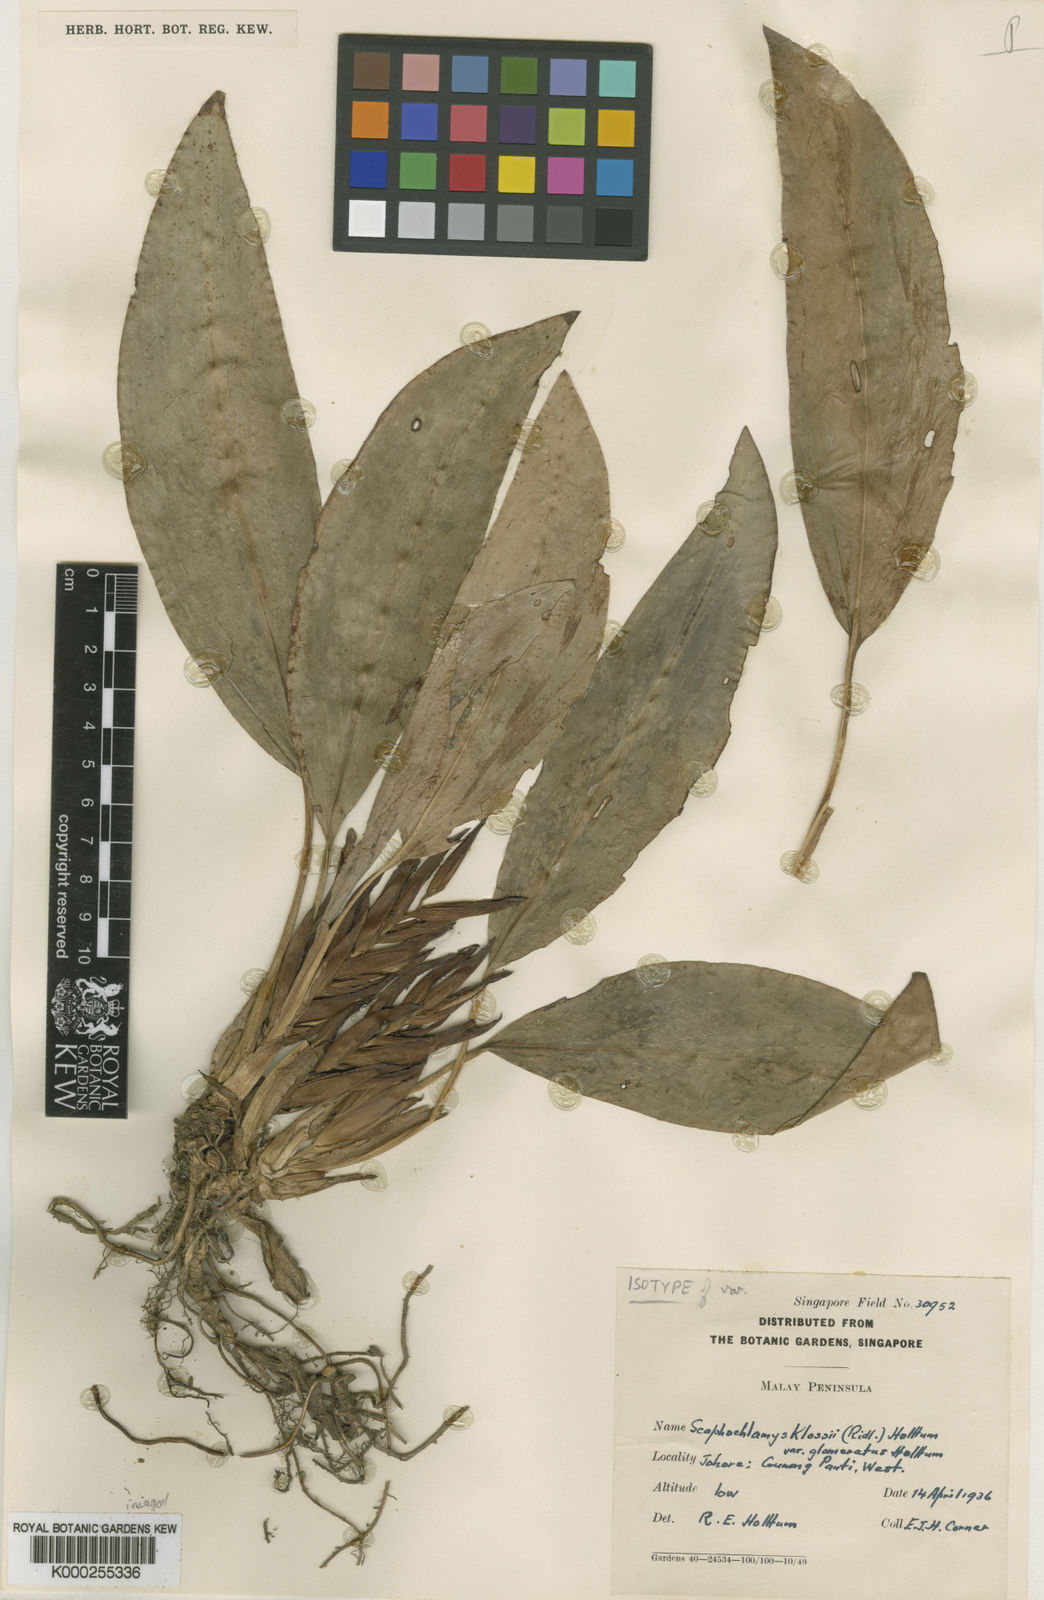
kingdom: Plantae
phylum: Tracheophyta
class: Liliopsida
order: Zingiberales
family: Zingiberaceae
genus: Scaphochlamys
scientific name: Scaphochlamys klossii
